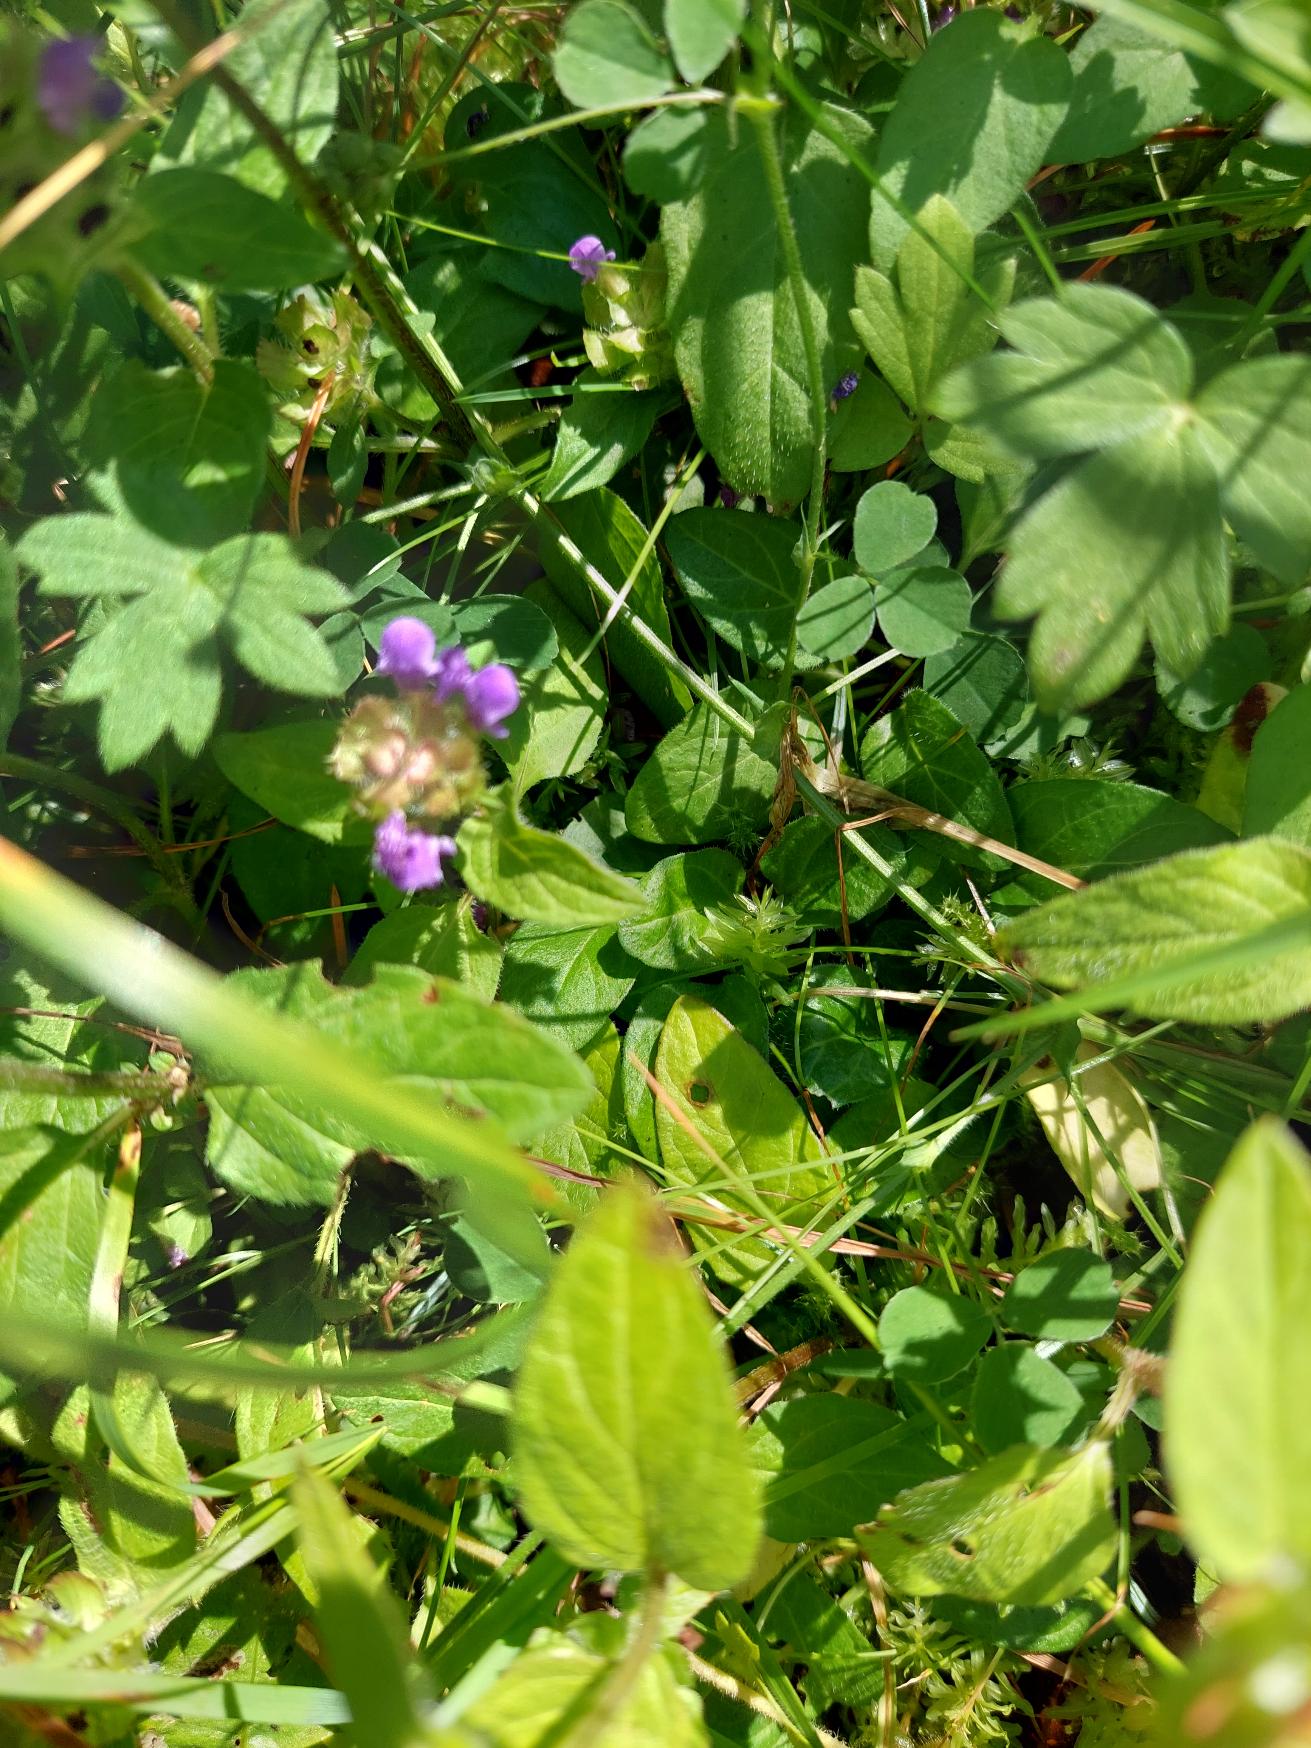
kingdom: Plantae
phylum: Tracheophyta
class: Magnoliopsida
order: Lamiales
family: Lamiaceae
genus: Prunella
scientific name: Prunella vulgaris
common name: Almindelig brunelle
